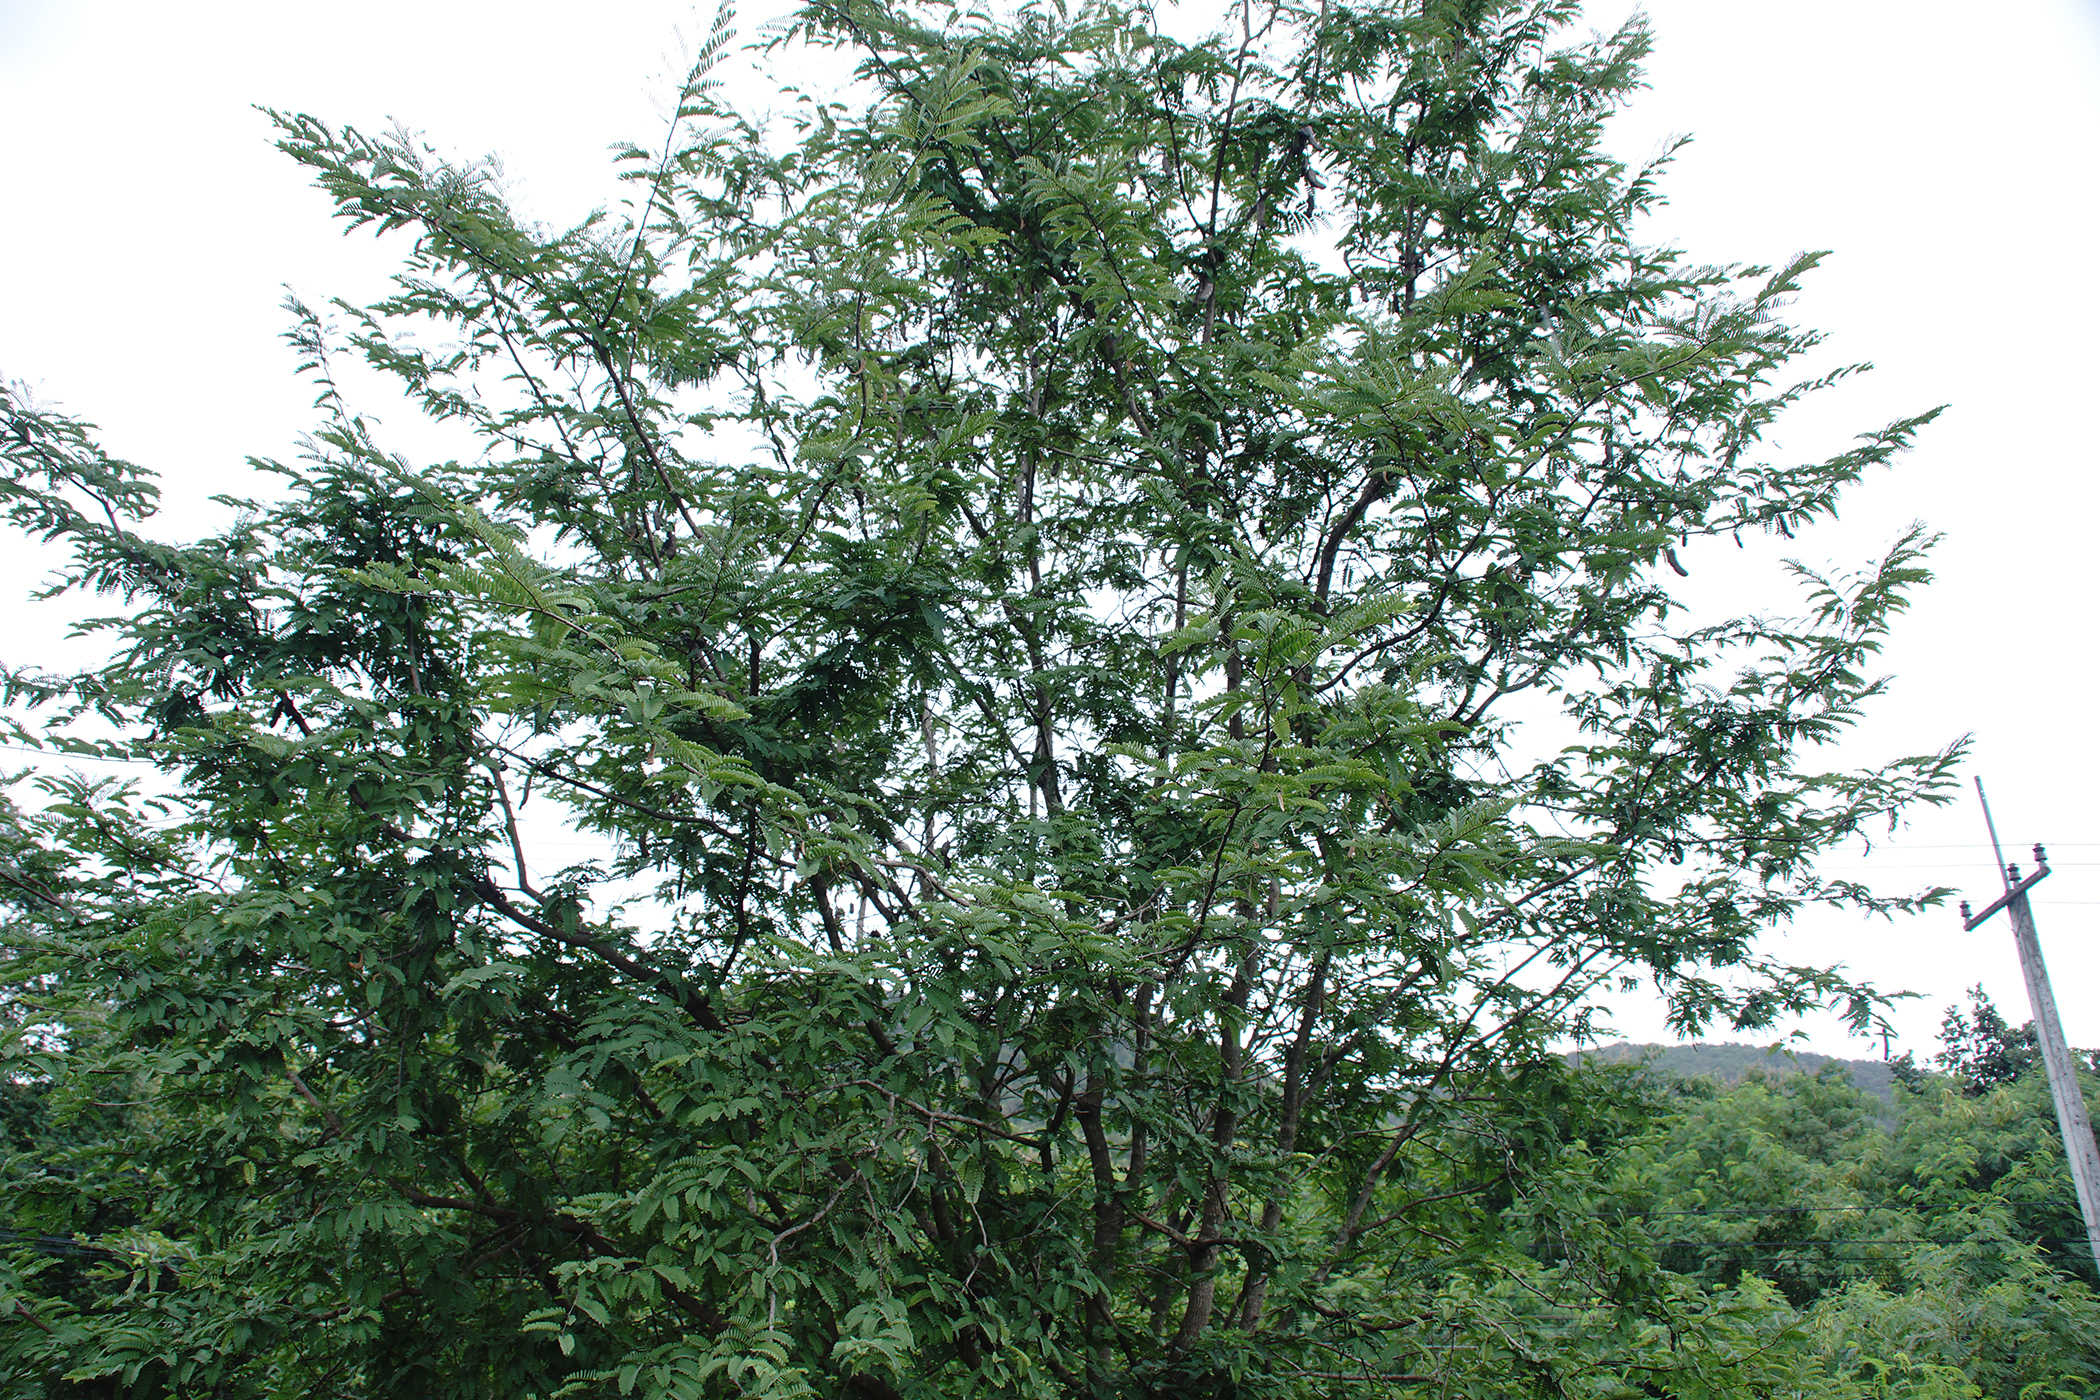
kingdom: Plantae
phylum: Tracheophyta
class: Magnoliopsida
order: Fabales
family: Fabaceae
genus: Tamarindus
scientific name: Tamarindus indica
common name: Tamarind
